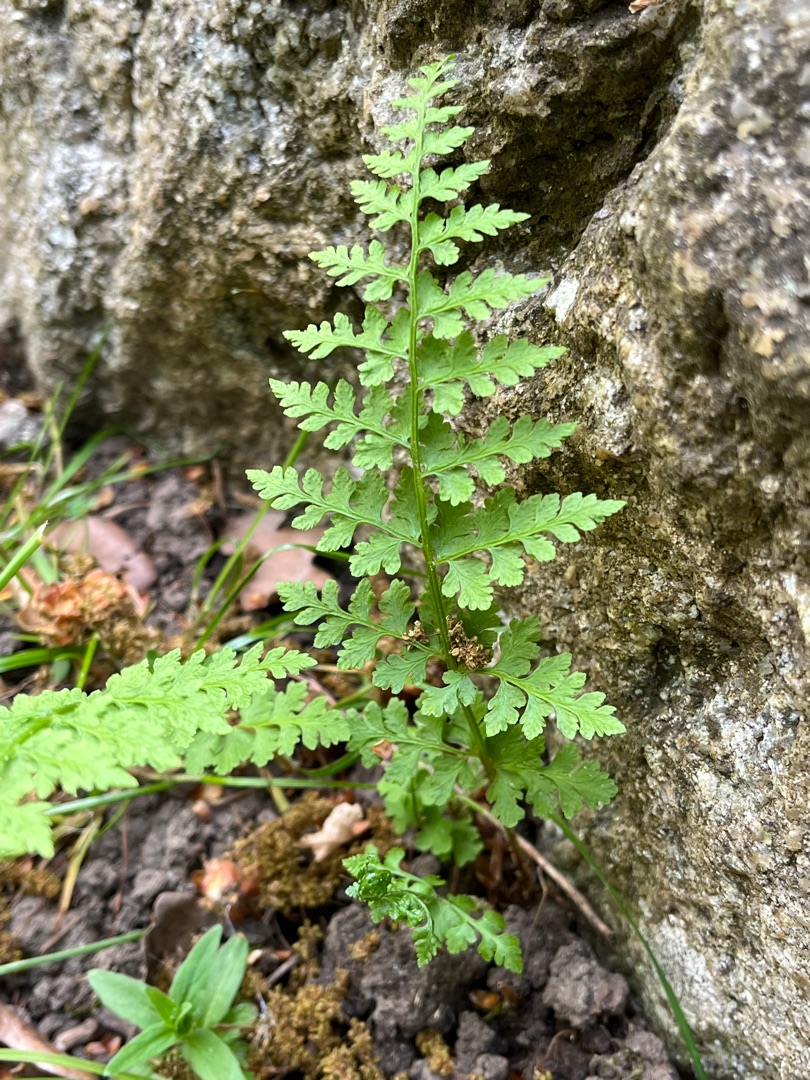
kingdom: Plantae
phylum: Tracheophyta
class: Polypodiopsida
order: Polypodiales
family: Cystopteridaceae
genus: Cystopteris
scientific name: Cystopteris fragilis
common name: Bægerbregne
